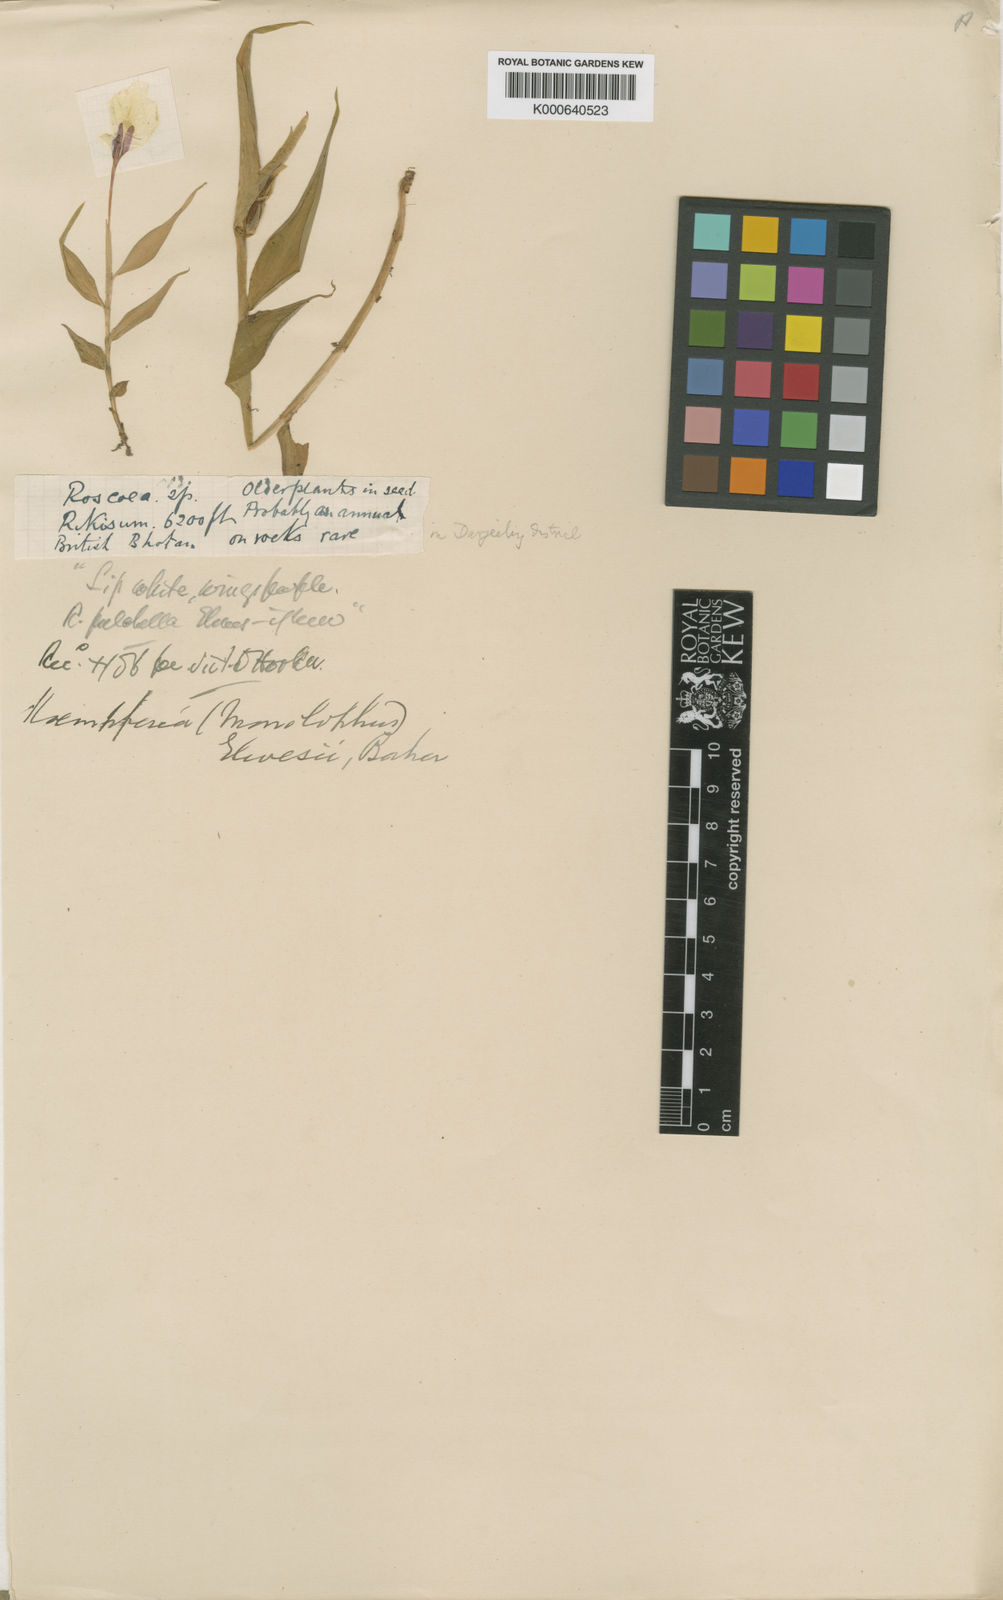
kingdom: Plantae
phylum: Tracheophyta
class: Liliopsida
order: Zingiberales
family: Zingiberaceae
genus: Caulokaempferia
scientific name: Caulokaempferia sikkimensis
